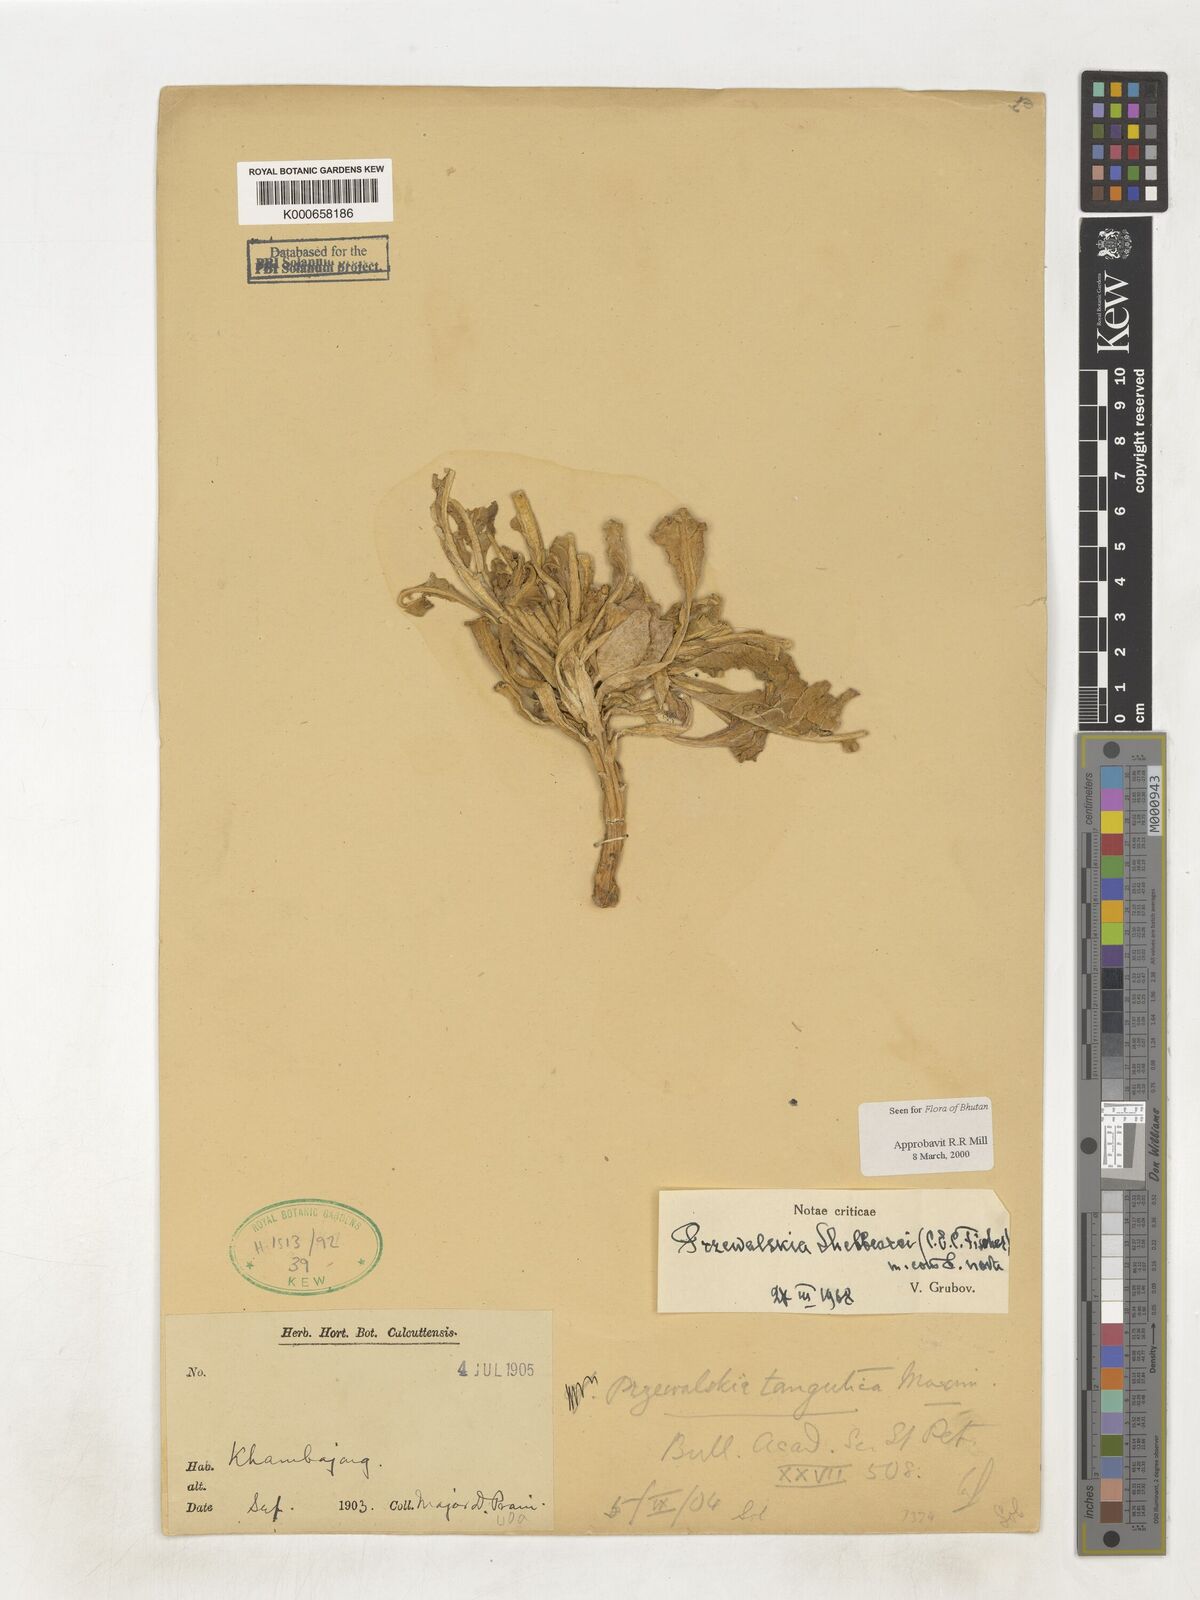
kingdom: Plantae
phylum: Tracheophyta
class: Magnoliopsida
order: Solanales
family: Solanaceae
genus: Przewalskia
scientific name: Przewalskia tangutica
